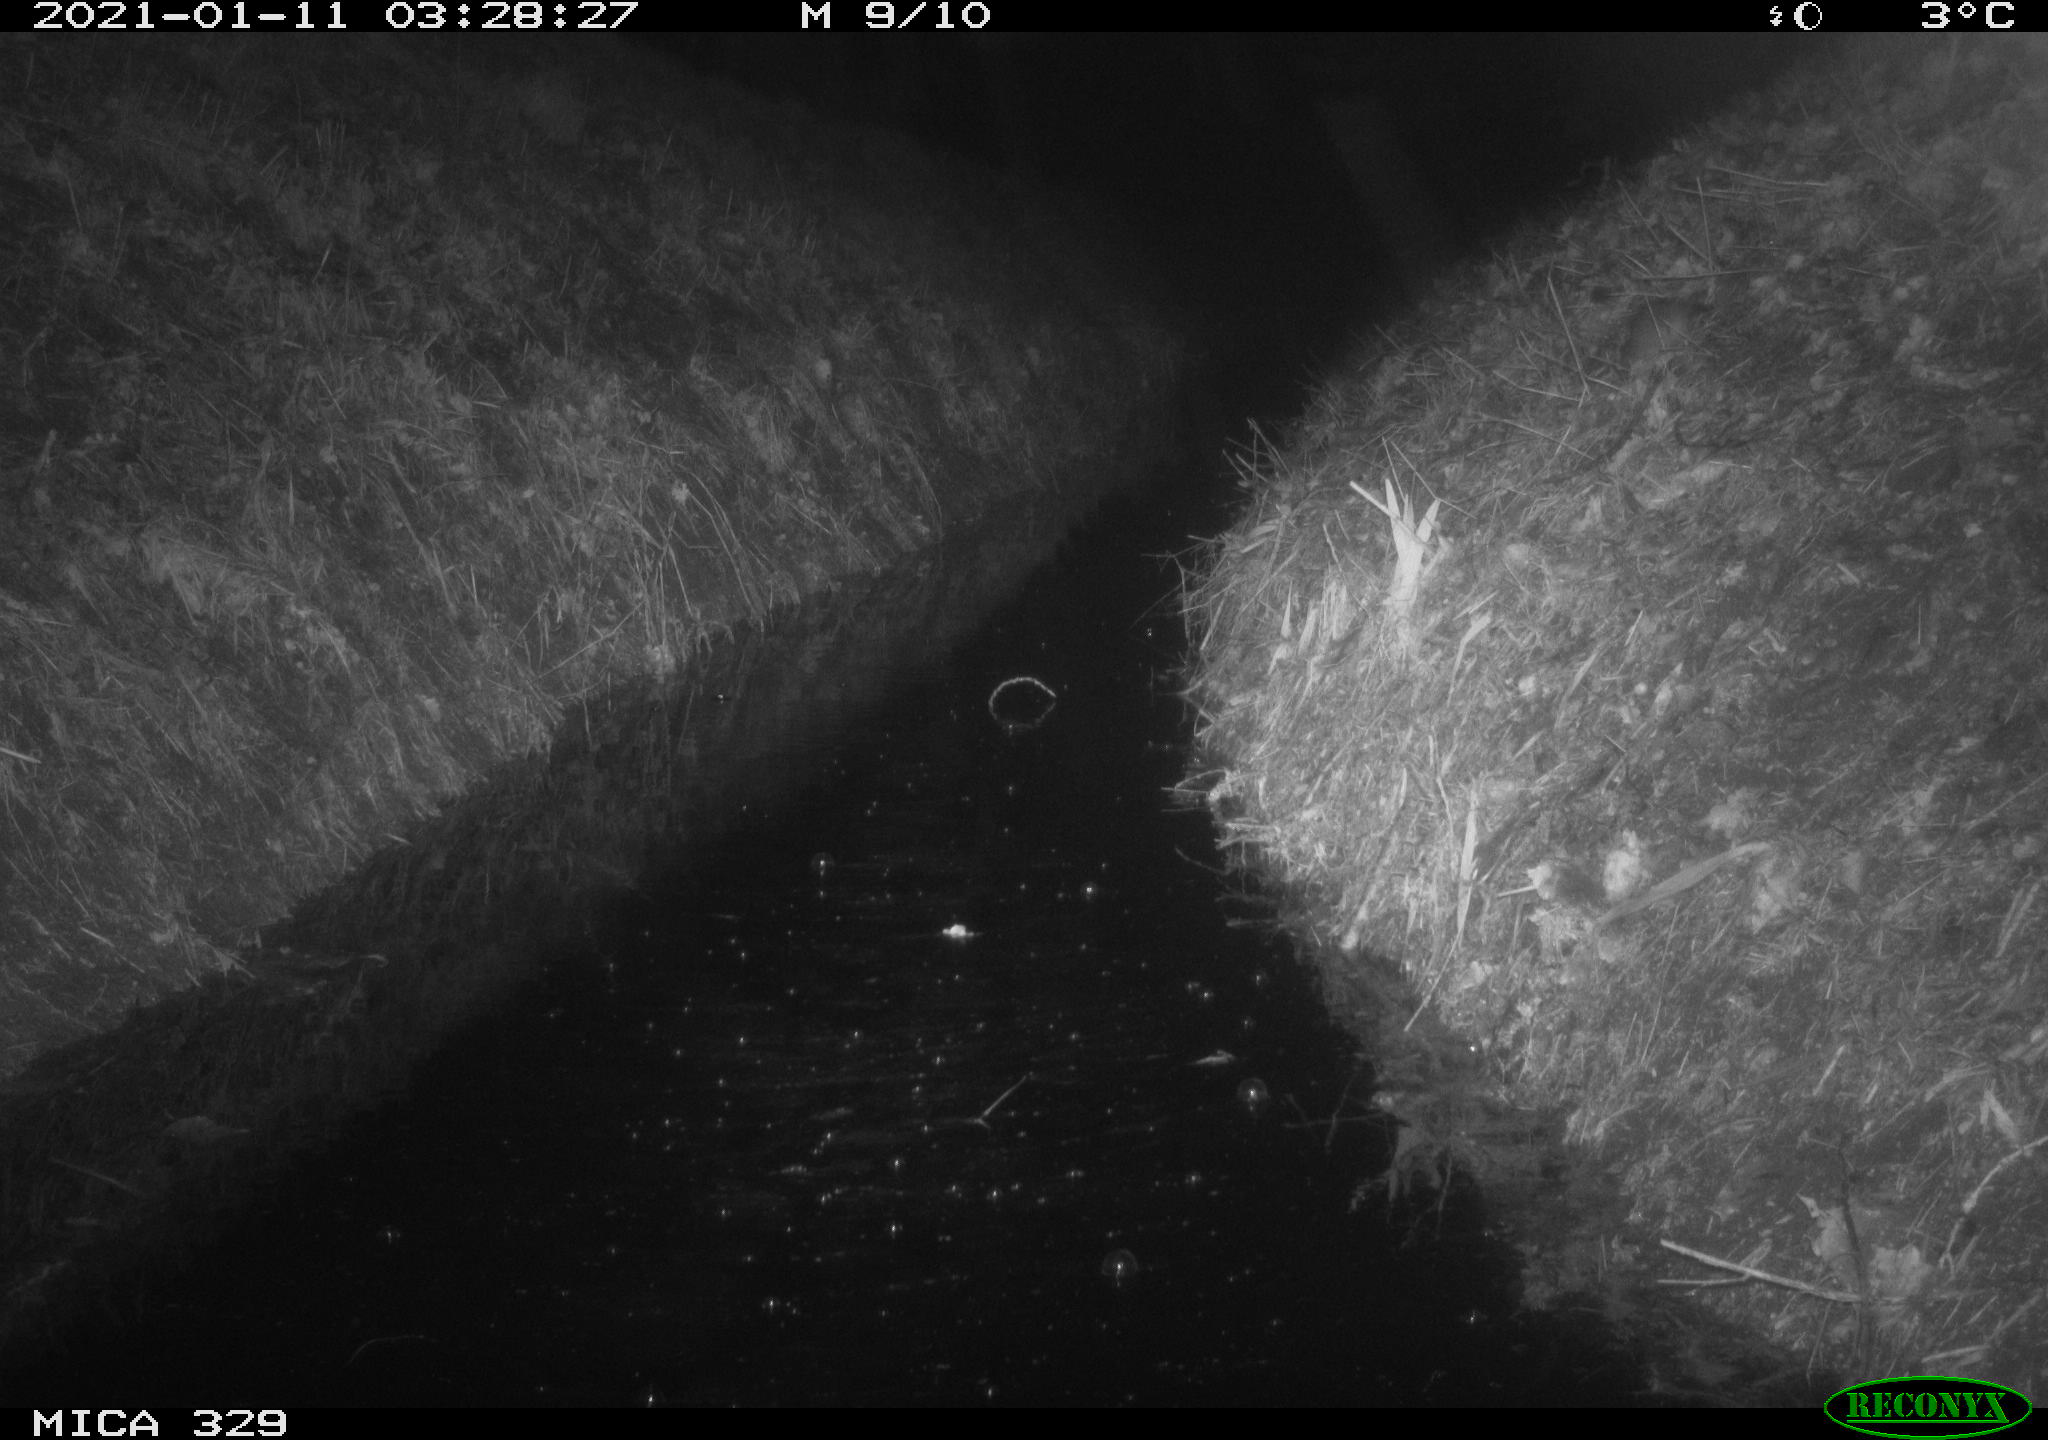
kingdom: Animalia
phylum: Chordata
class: Mammalia
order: Rodentia
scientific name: Rodentia
